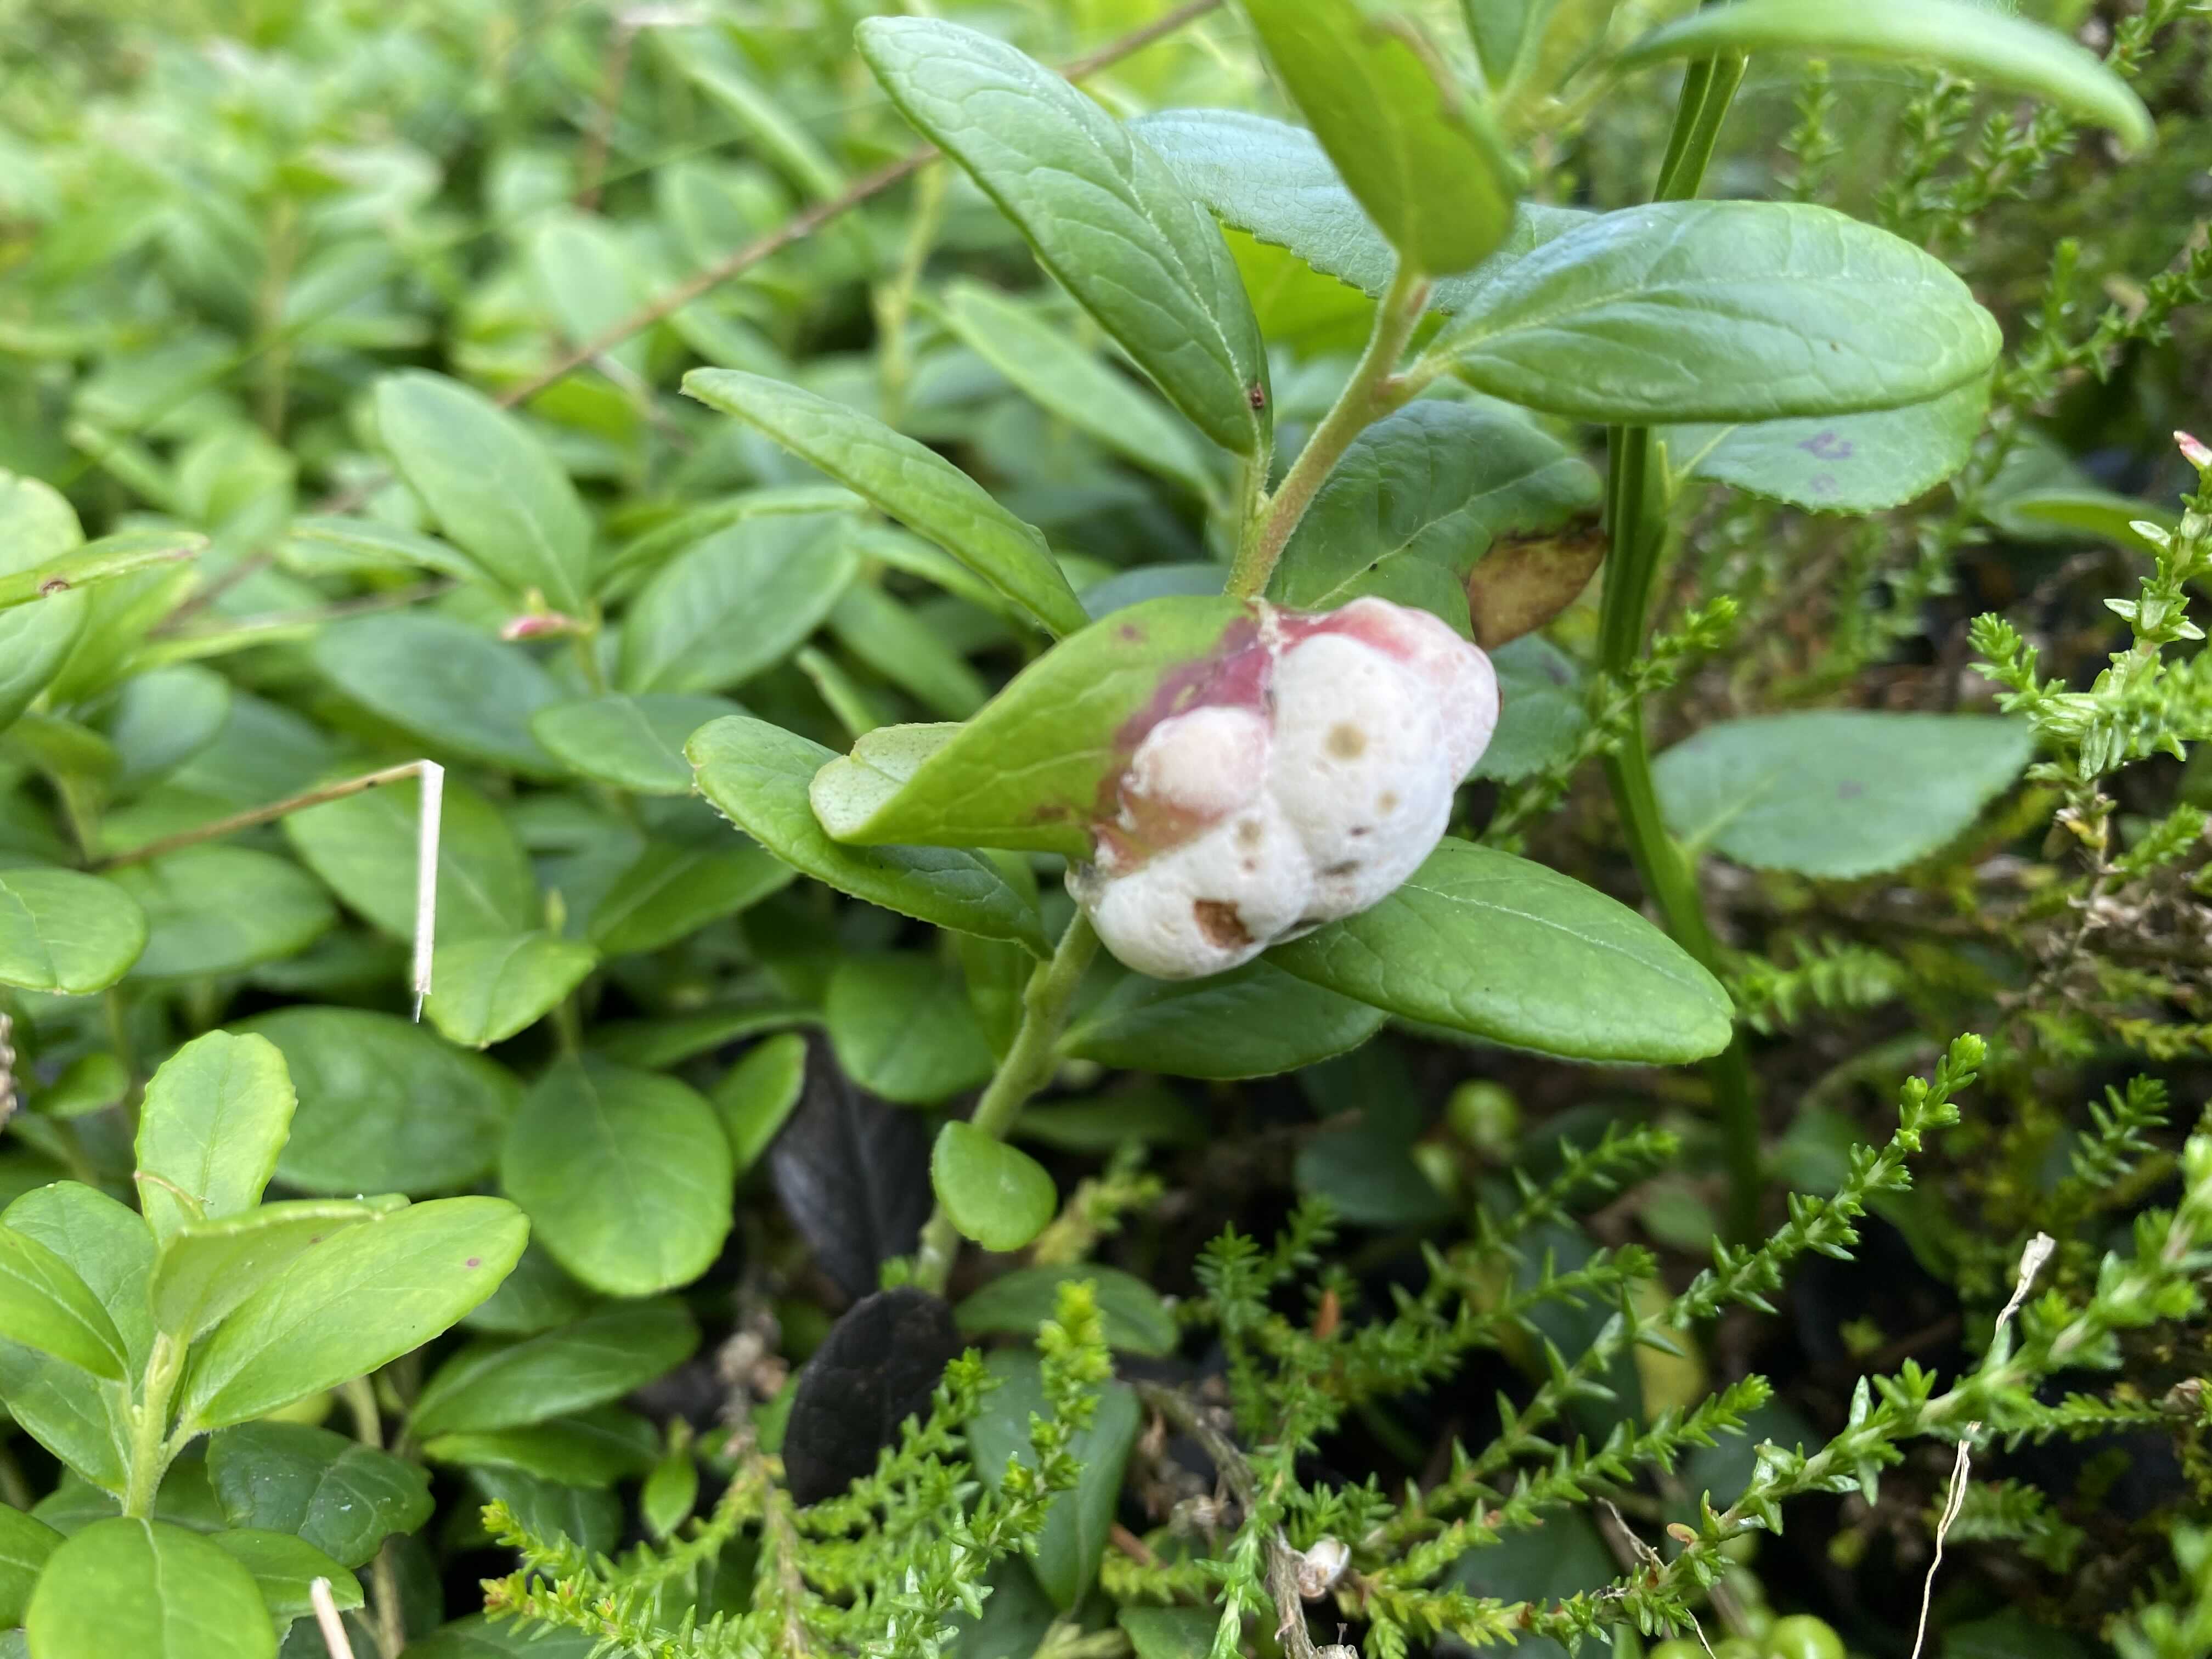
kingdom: Fungi
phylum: Basidiomycota
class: Exobasidiomycetes
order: Exobasidiales
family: Exobasidiaceae
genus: Exobasidium
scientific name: Exobasidium vaccinii
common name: tyttebærblad-bøllesvamp
